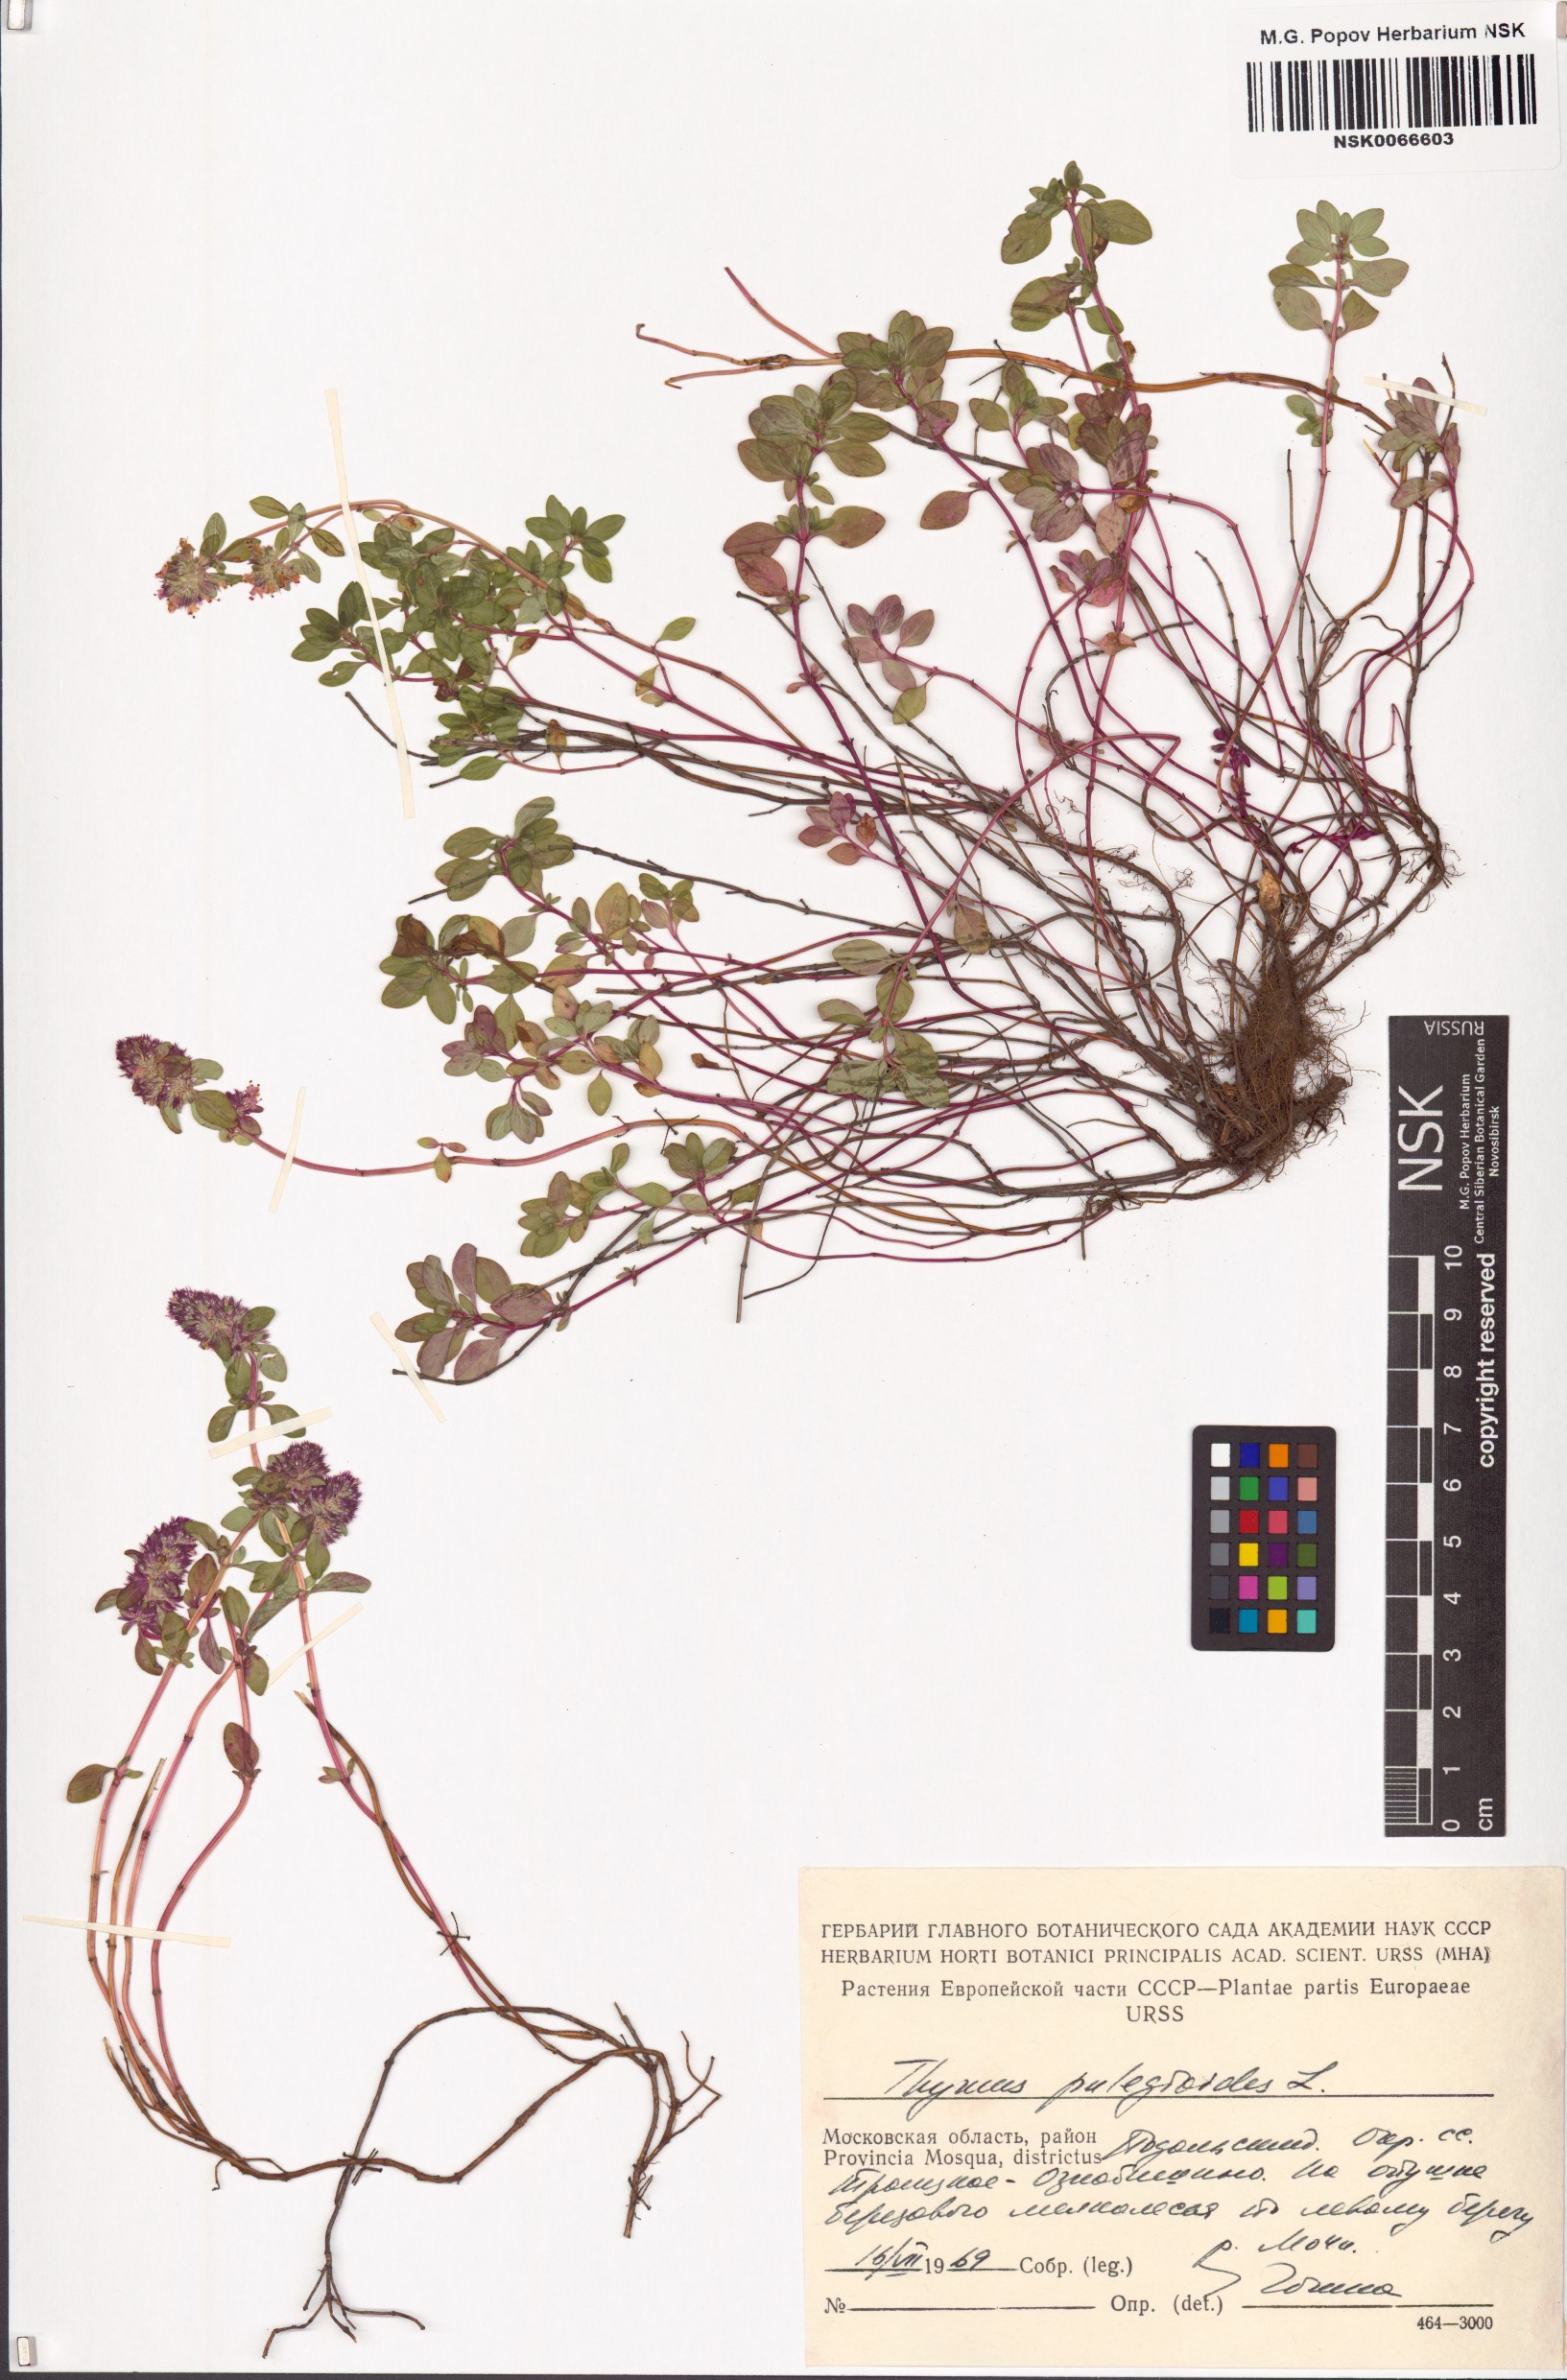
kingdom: Plantae
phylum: Tracheophyta
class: Magnoliopsida
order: Lamiales
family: Lamiaceae
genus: Thymus
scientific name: Thymus pulegioides
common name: Large thyme
